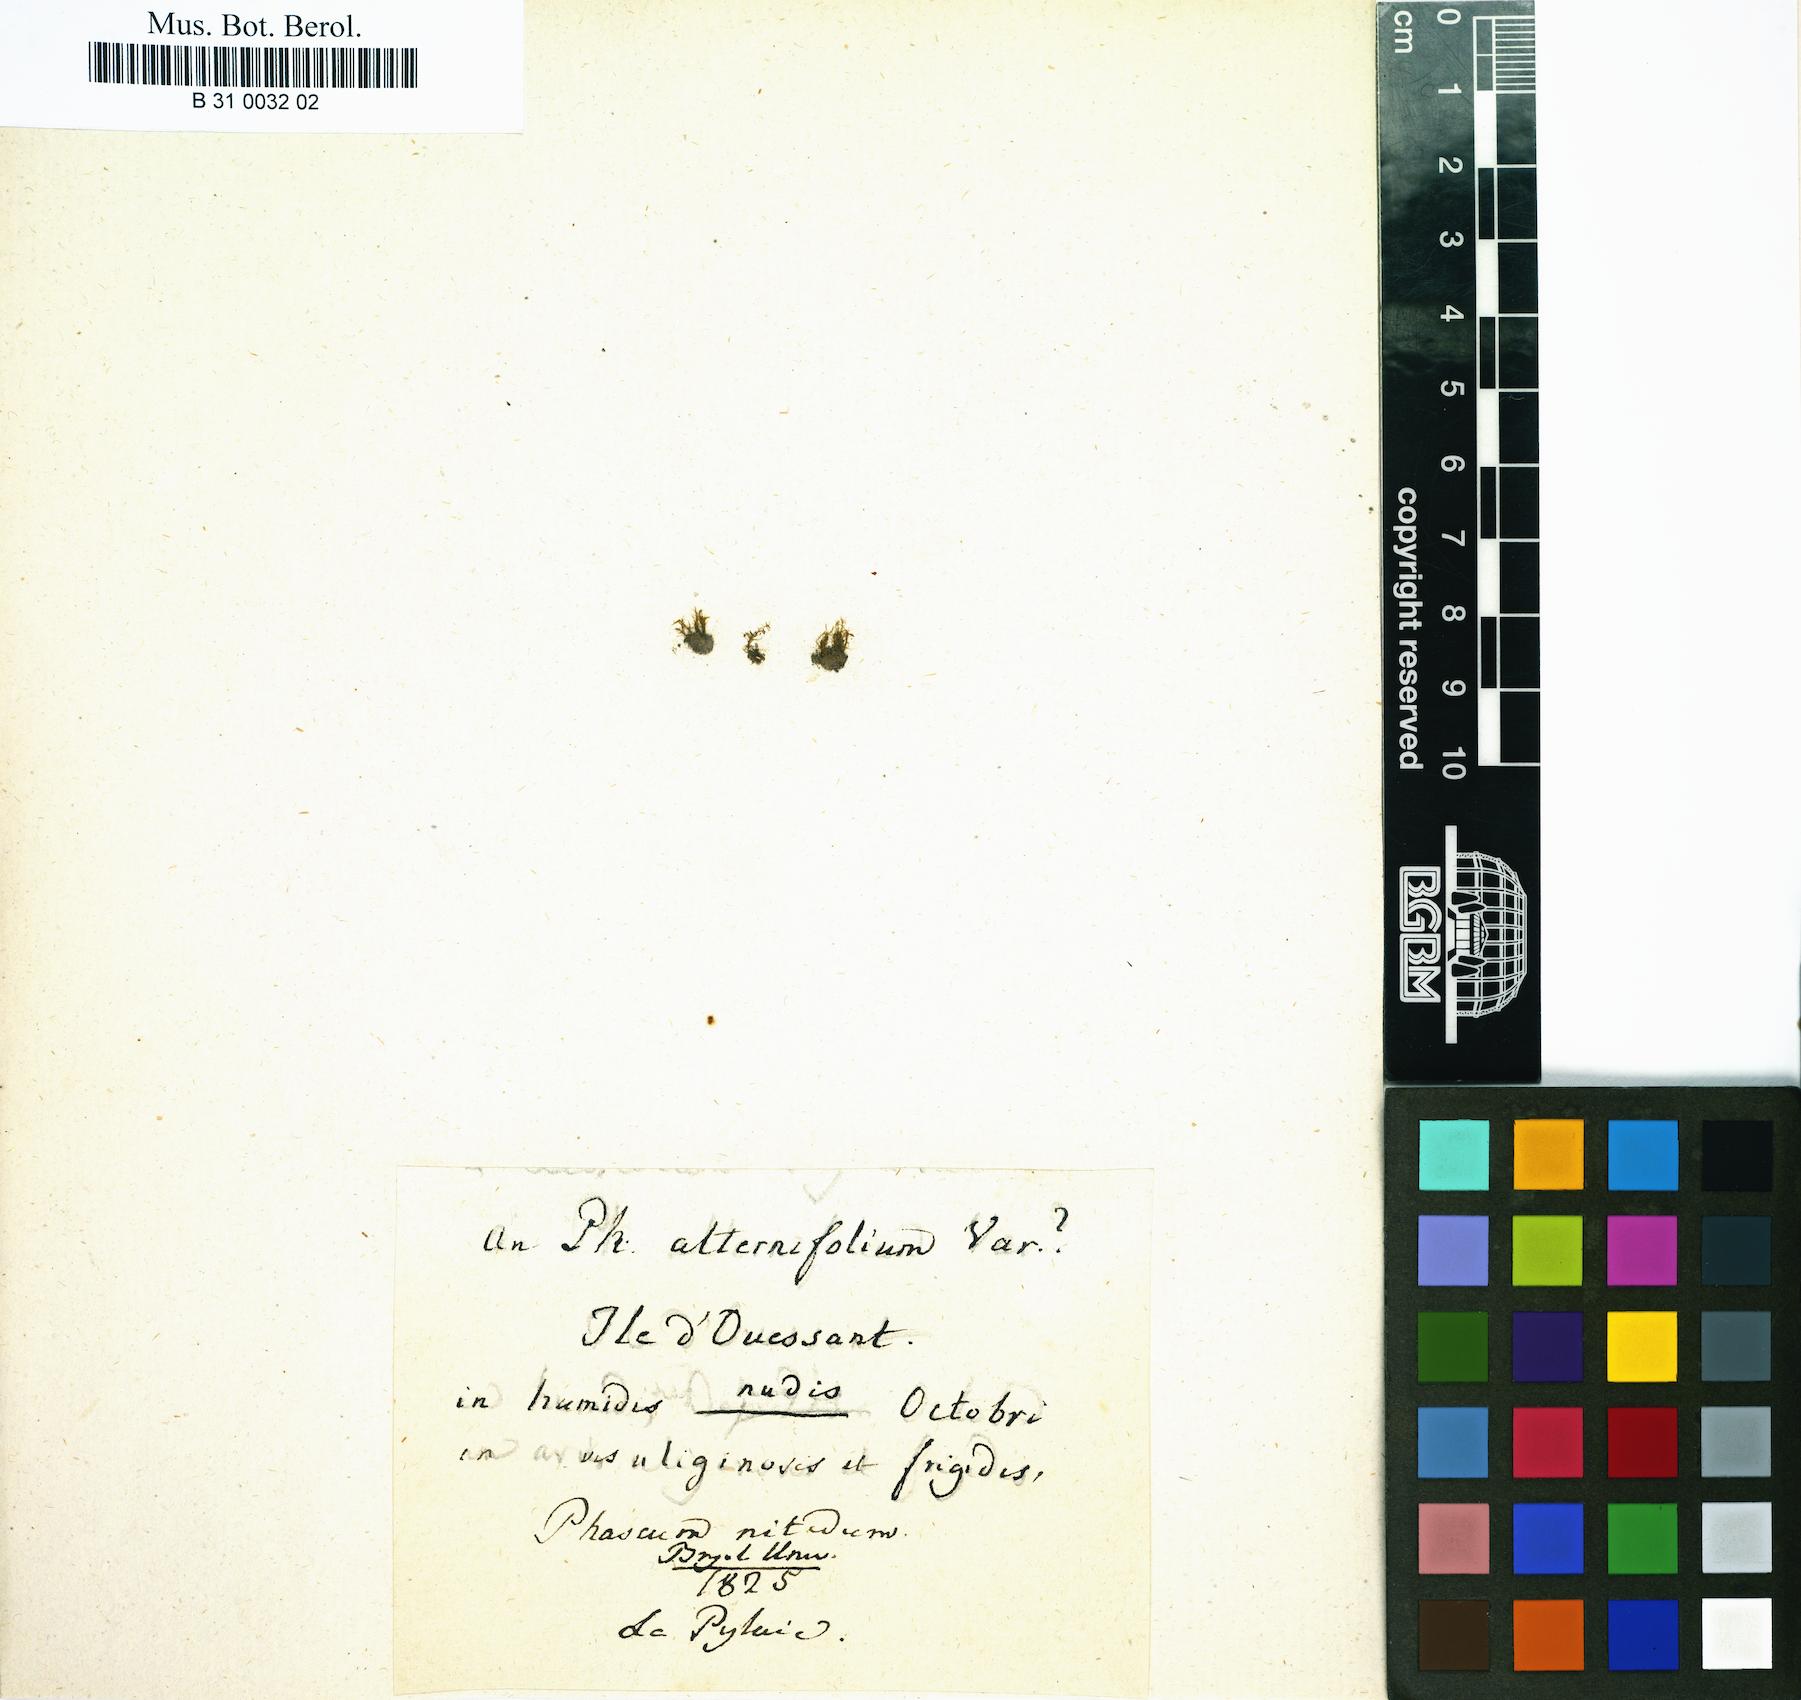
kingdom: Plantae
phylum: Bryophyta
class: Bryopsida
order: Dicranales
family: Ditrichaceae
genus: Pseudephemerum
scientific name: Pseudephemerum nitidum
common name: Delicate earth-moss
